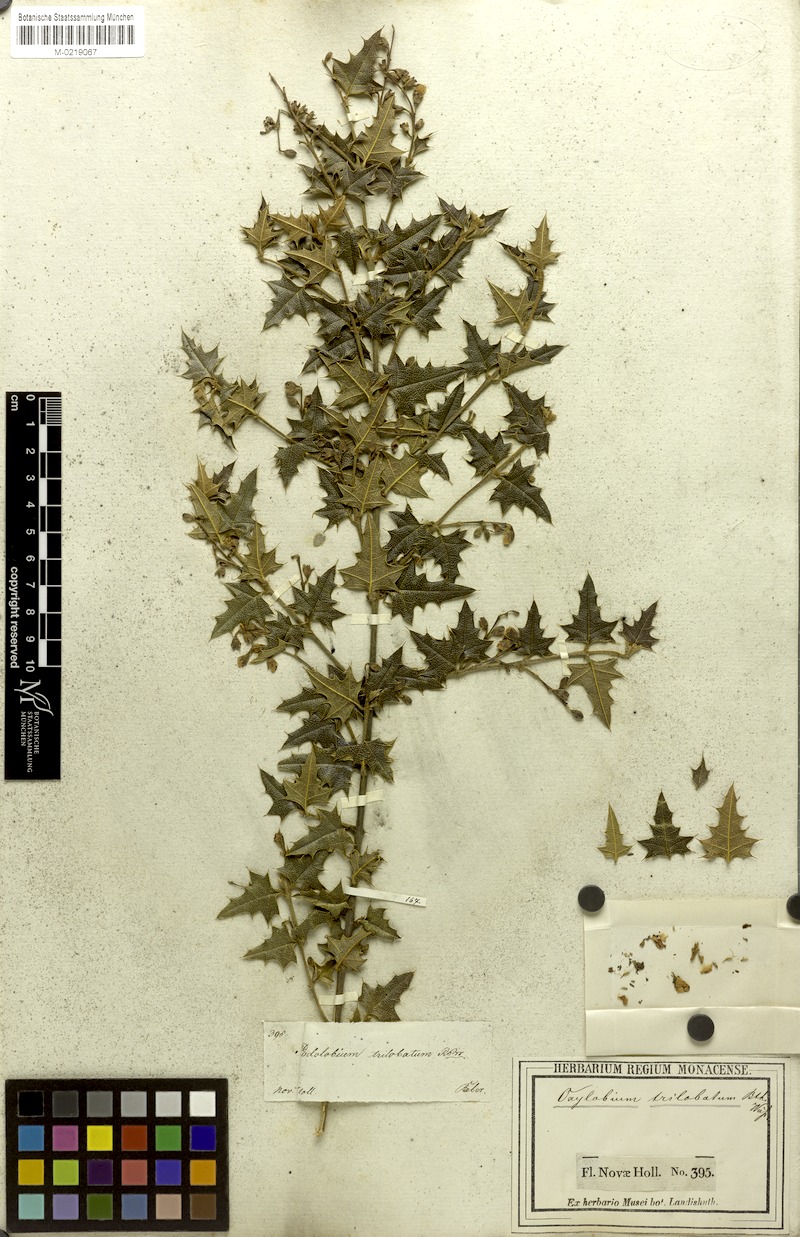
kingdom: Plantae
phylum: Tracheophyta
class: Magnoliopsida
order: Fabales
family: Fabaceae
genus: Podolobium
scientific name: Podolobium ilicifolium
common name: Native holly
